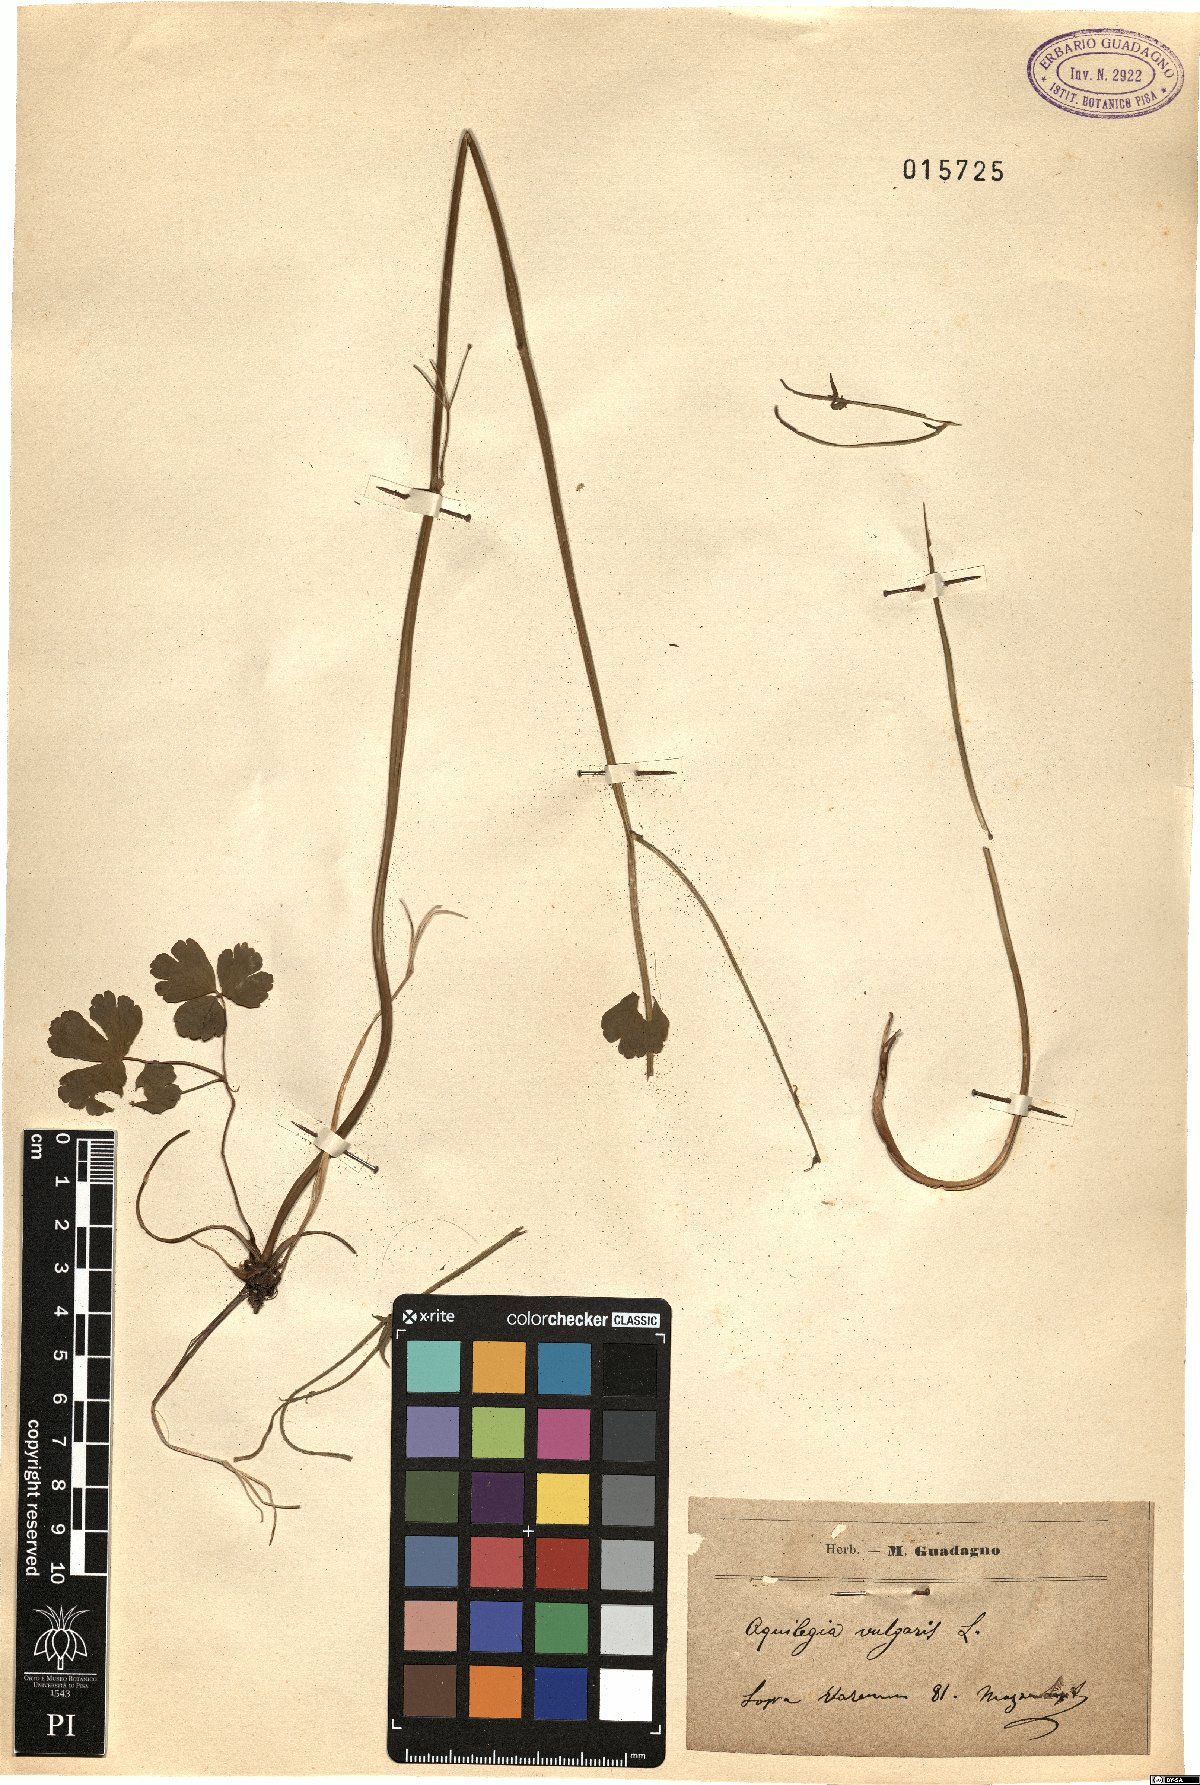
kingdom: Plantae
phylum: Tracheophyta
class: Magnoliopsida
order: Ranunculales
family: Ranunculaceae
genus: Aquilegia
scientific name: Aquilegia vulgaris
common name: Columbine
